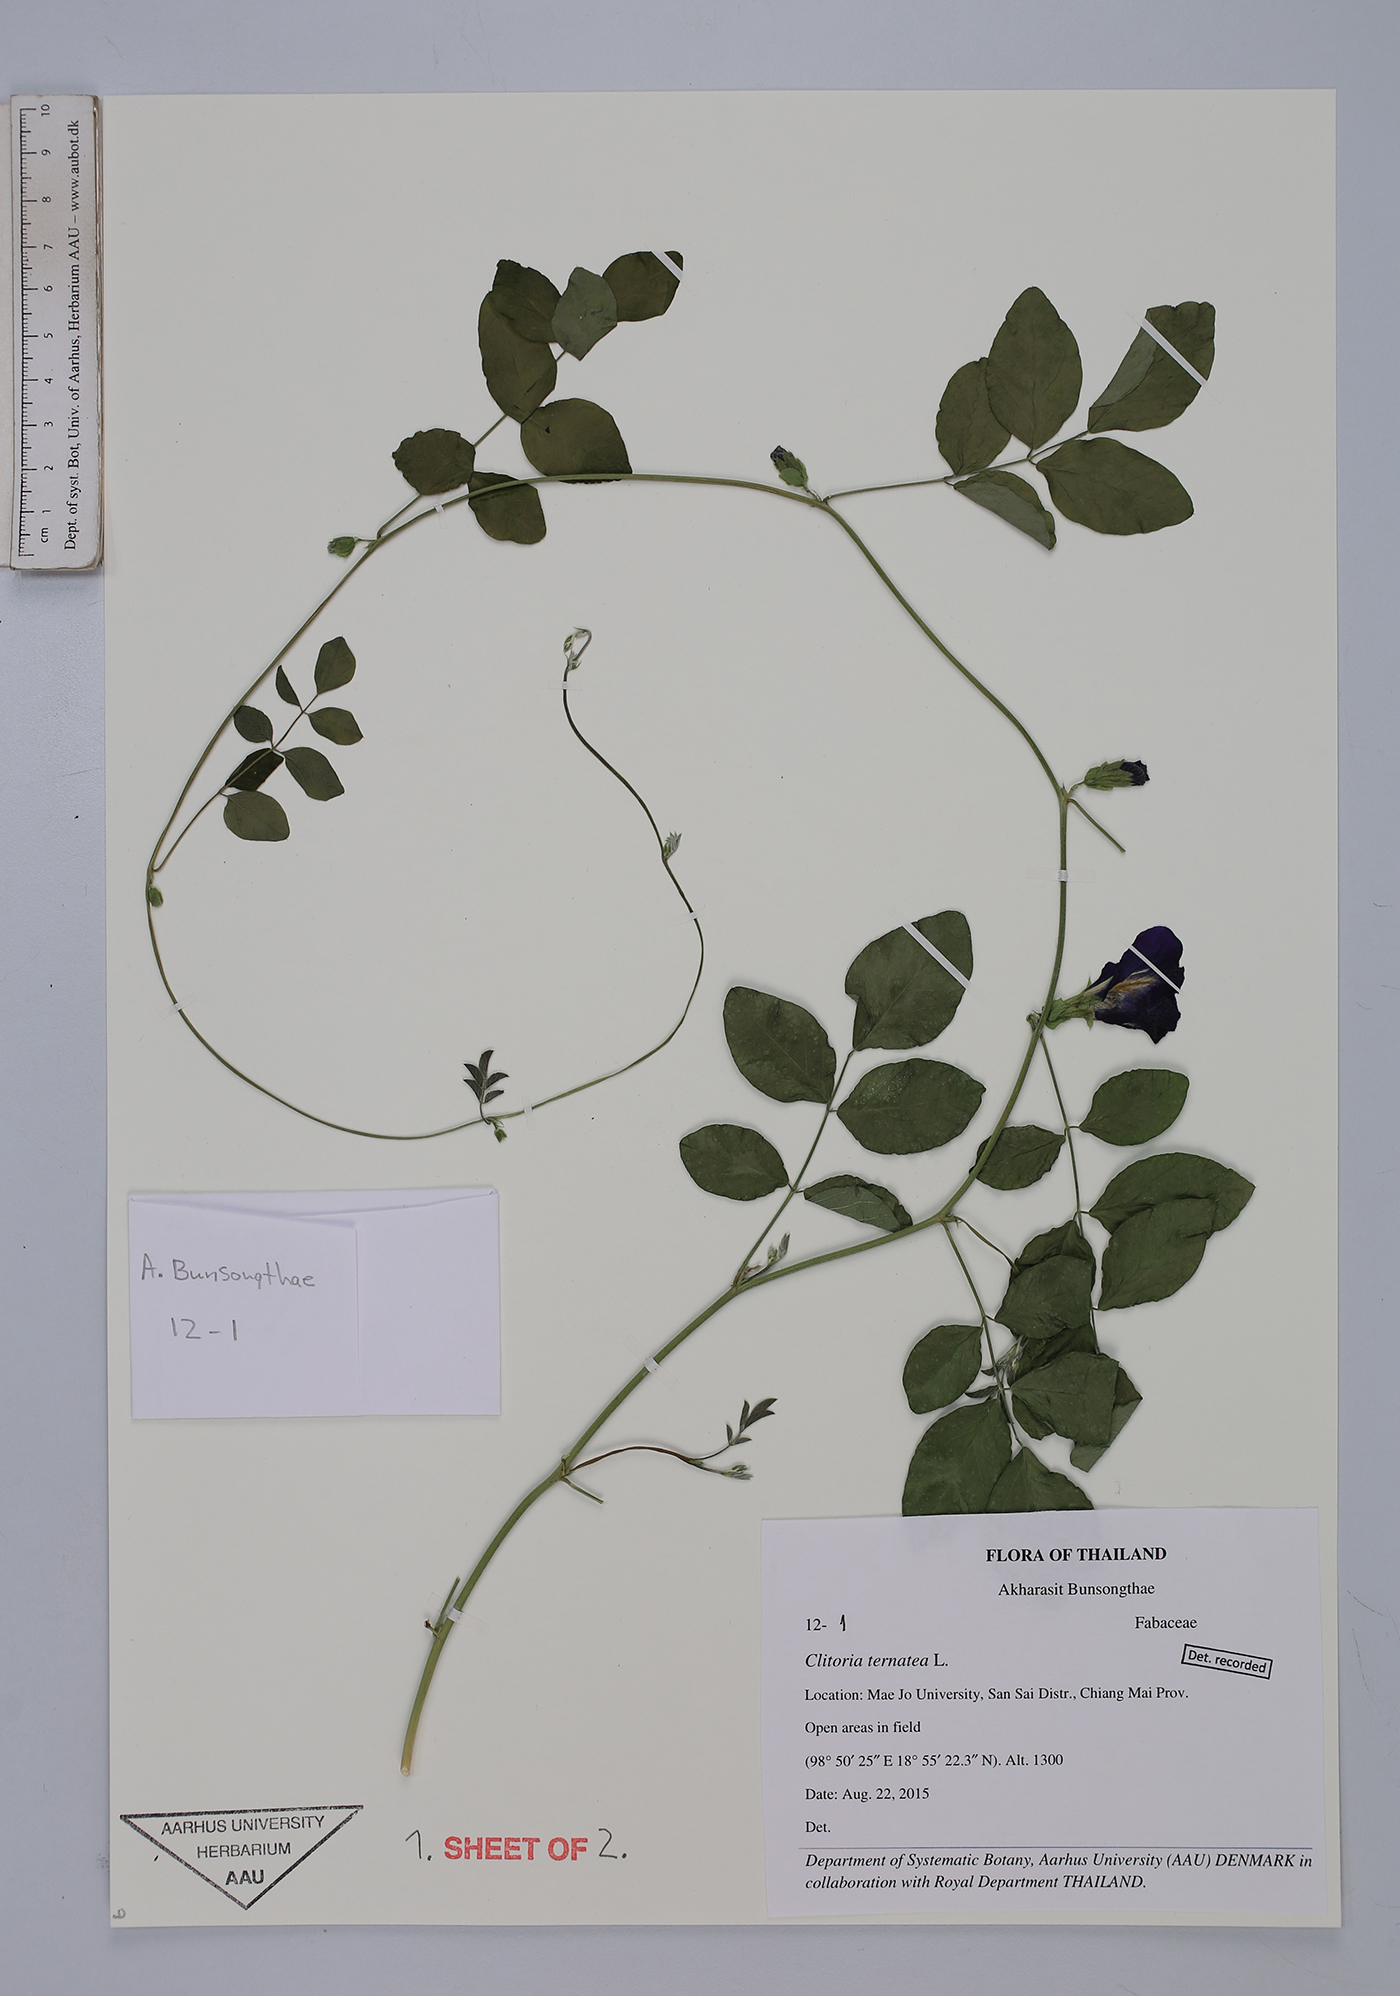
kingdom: Plantae
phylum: Tracheophyta
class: Magnoliopsida
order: Fabales
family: Fabaceae
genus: Clitoria
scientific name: Clitoria ternatea
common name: Asian pigeonwings
